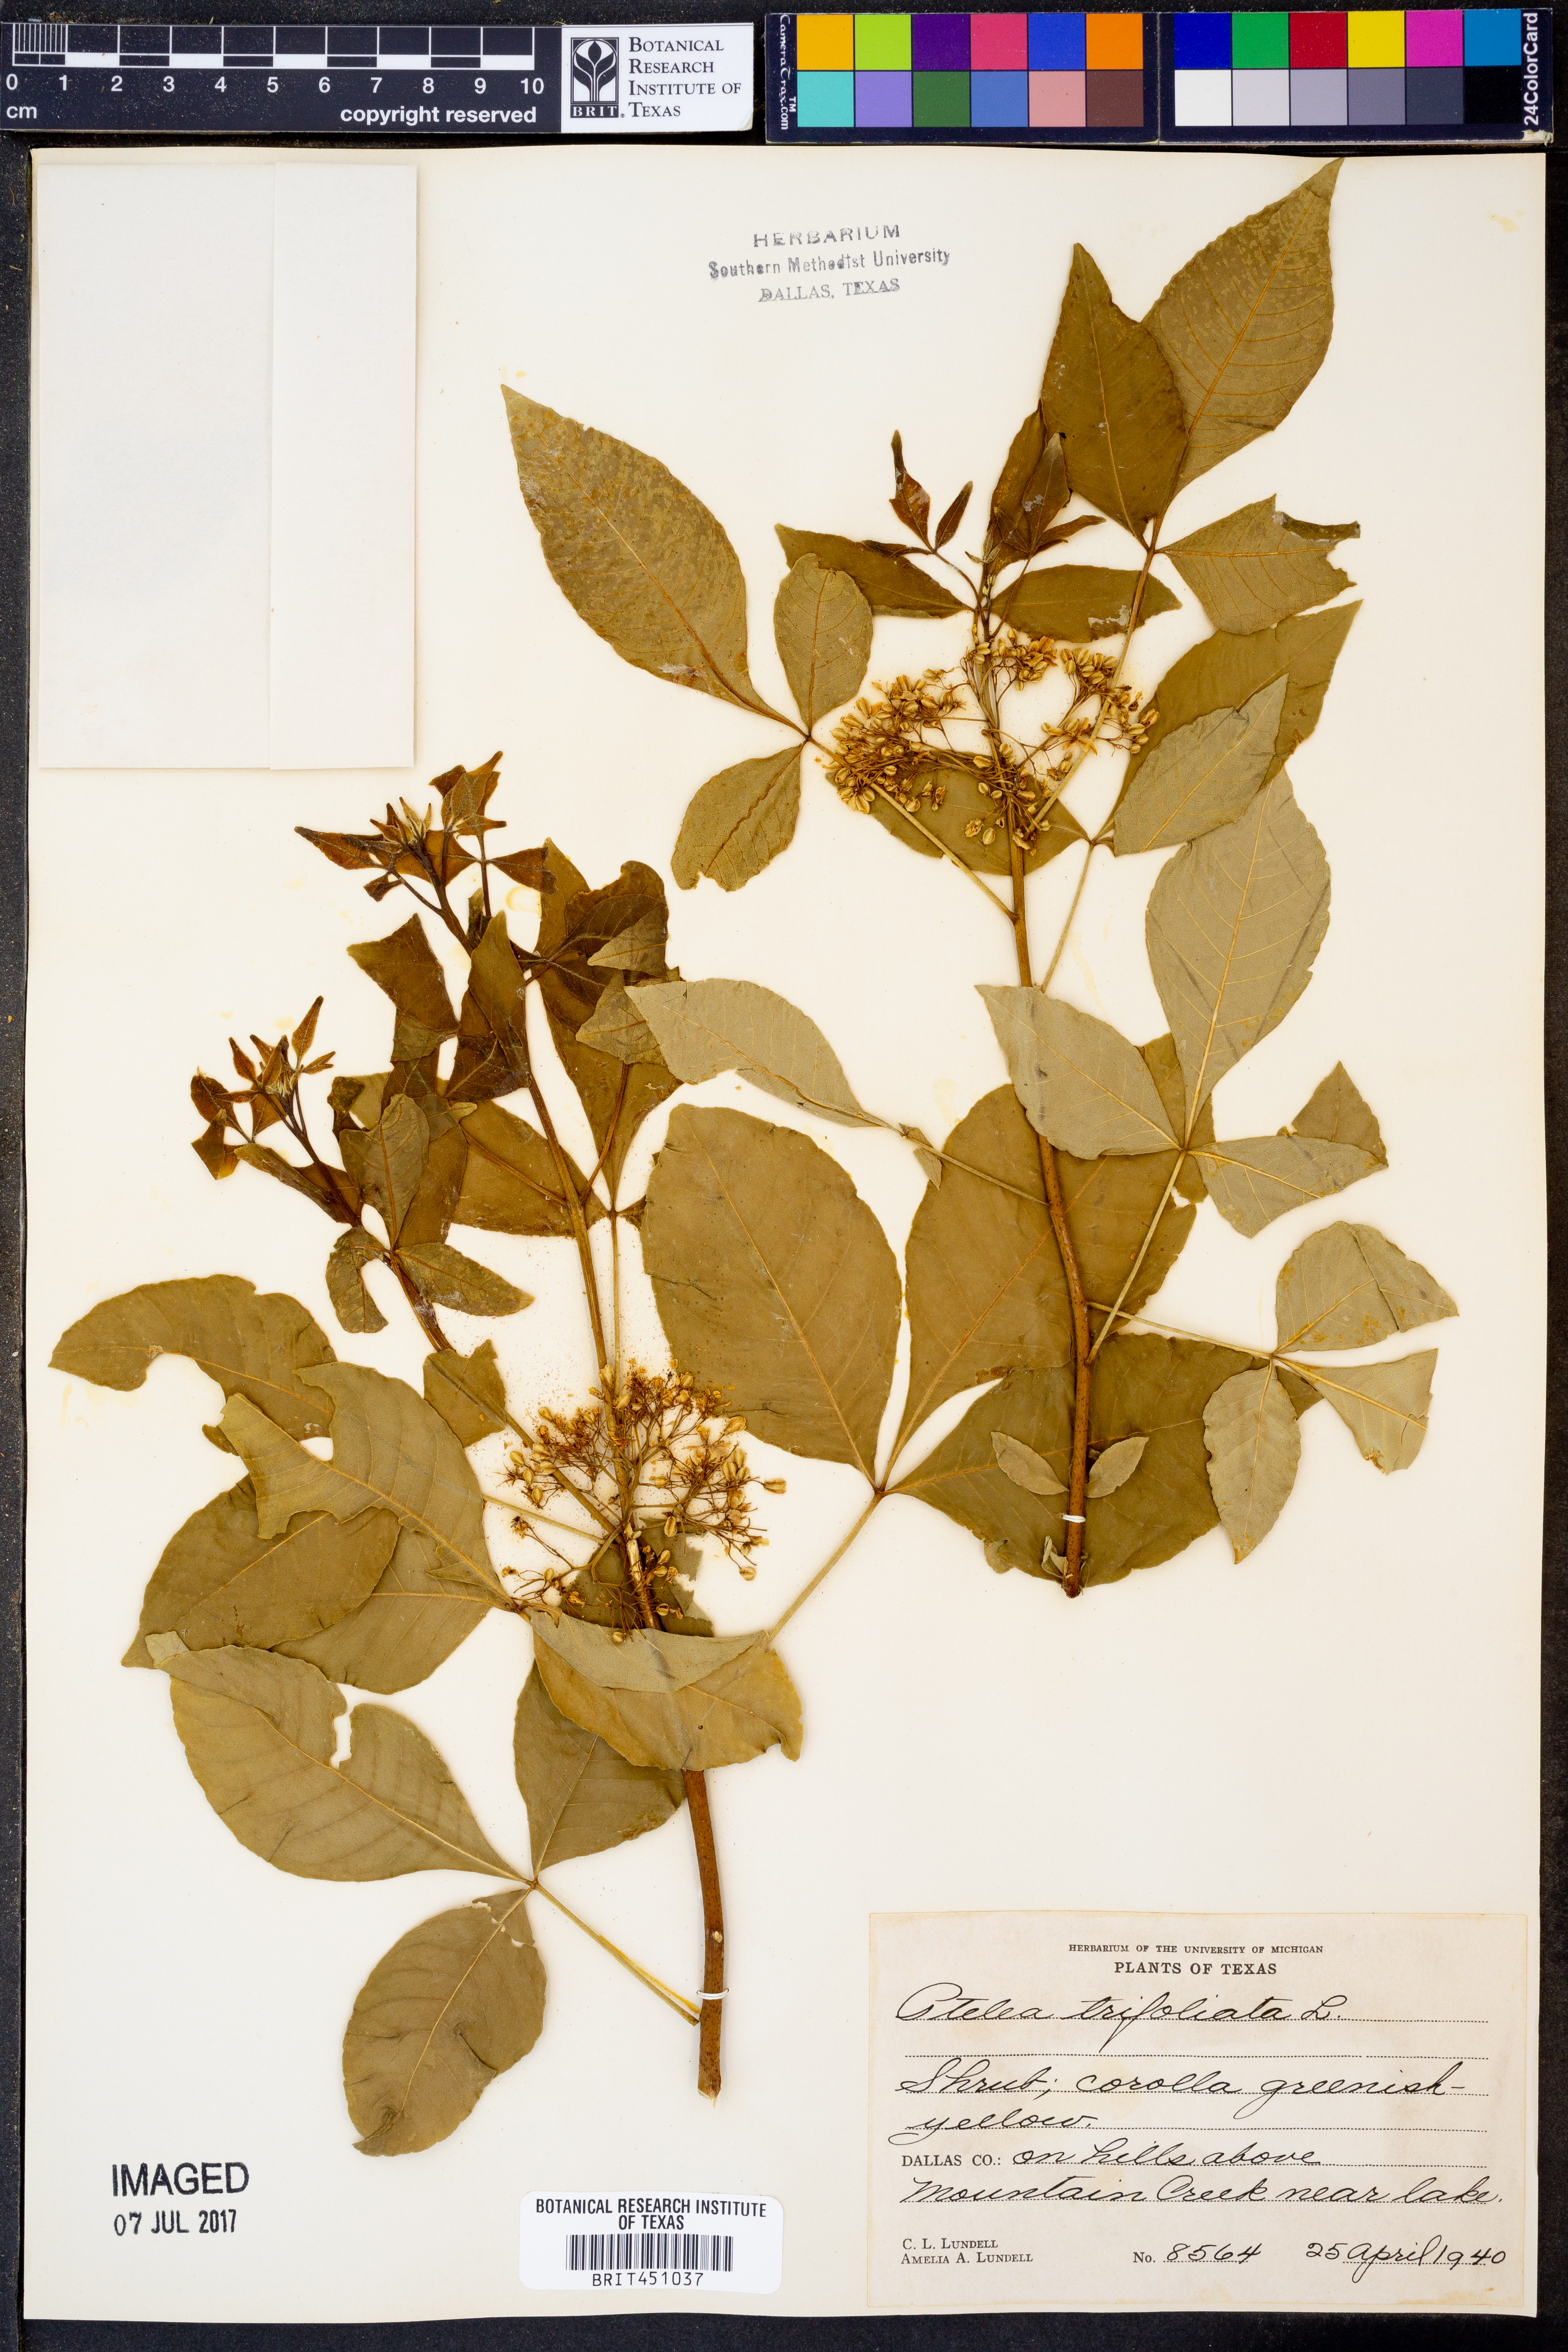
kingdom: Plantae
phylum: Tracheophyta
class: Magnoliopsida
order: Sapindales
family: Rutaceae
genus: Ptelea
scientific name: Ptelea trifoliata
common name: Common hop-tree
